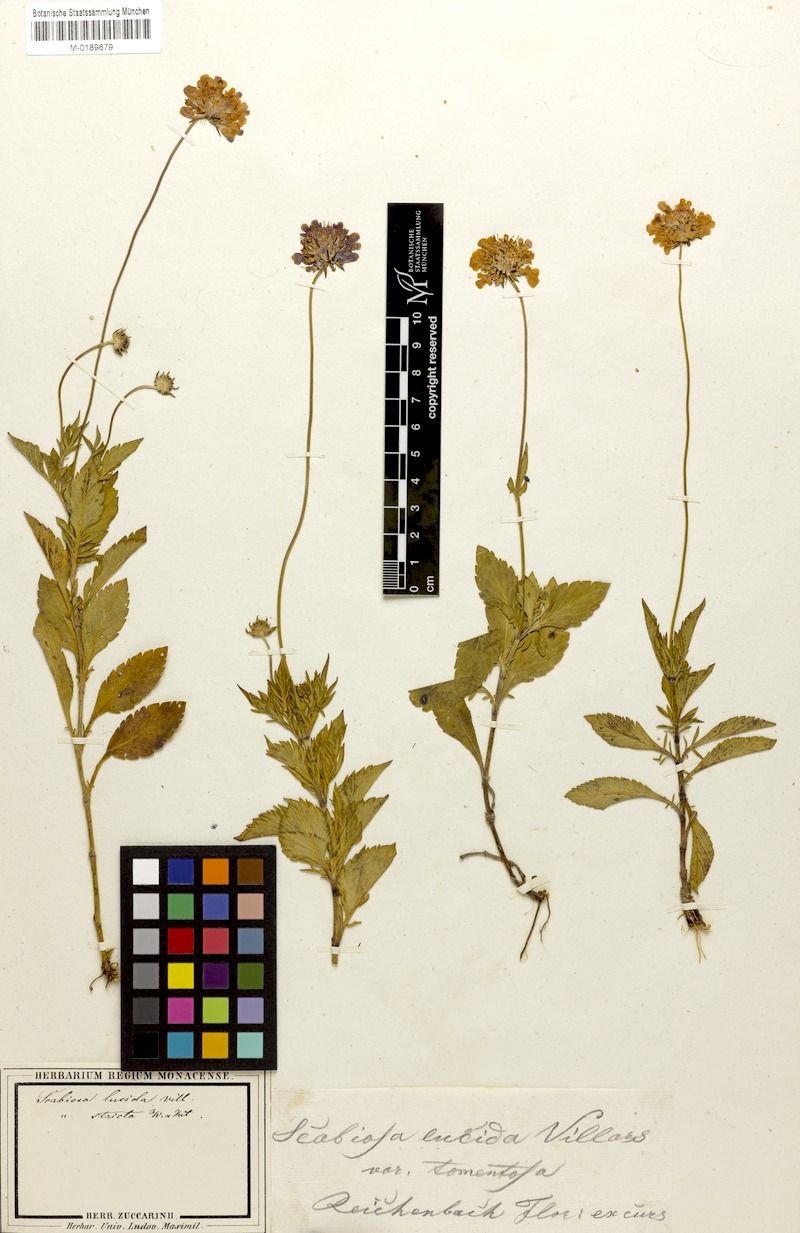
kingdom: Plantae
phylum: Tracheophyta
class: Magnoliopsida
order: Dipsacales
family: Caprifoliaceae
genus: Scabiosa
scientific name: Scabiosa lucida
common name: Shining scabious
